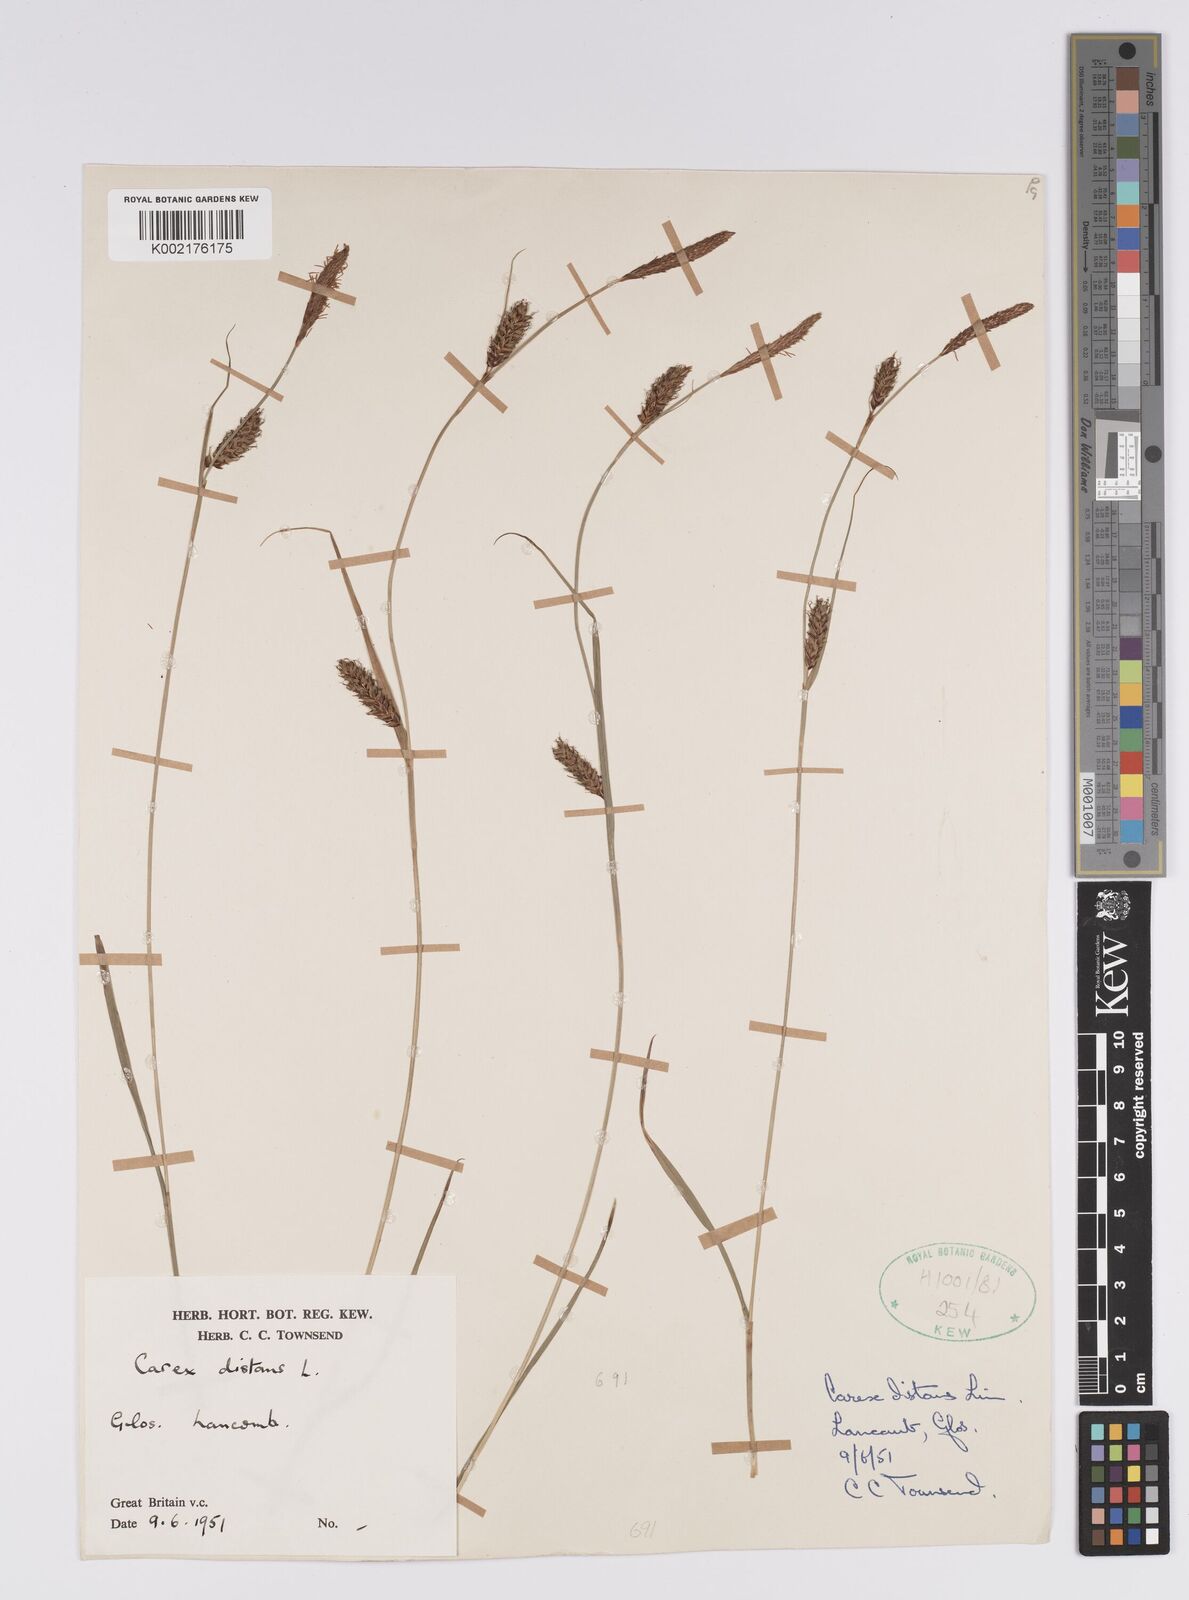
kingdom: Plantae
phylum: Tracheophyta
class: Liliopsida
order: Poales
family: Cyperaceae
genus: Carex
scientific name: Carex distans
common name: Distant sedge
